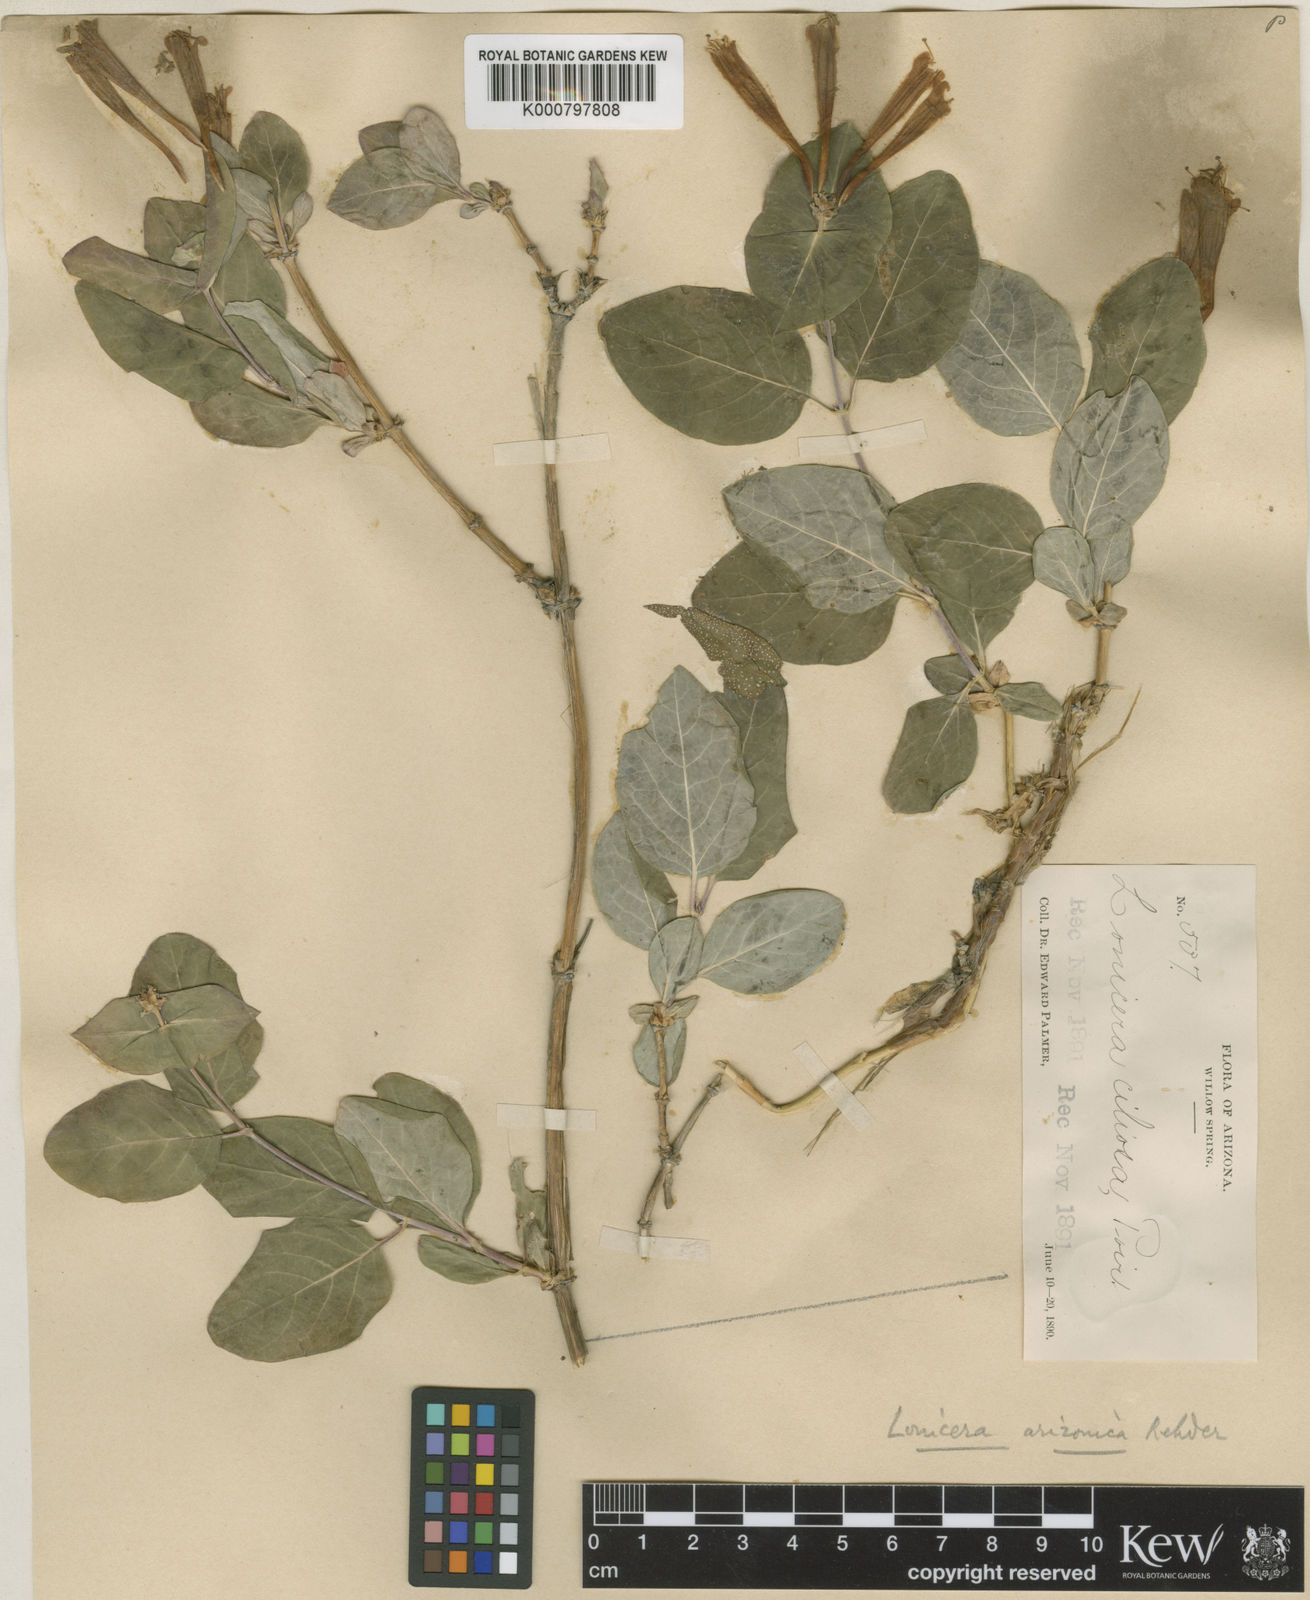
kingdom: Plantae
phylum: Tracheophyta
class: Magnoliopsida
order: Dipsacales
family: Caprifoliaceae
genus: Lonicera
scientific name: Lonicera arizonica
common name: Arizona honeysuckle
